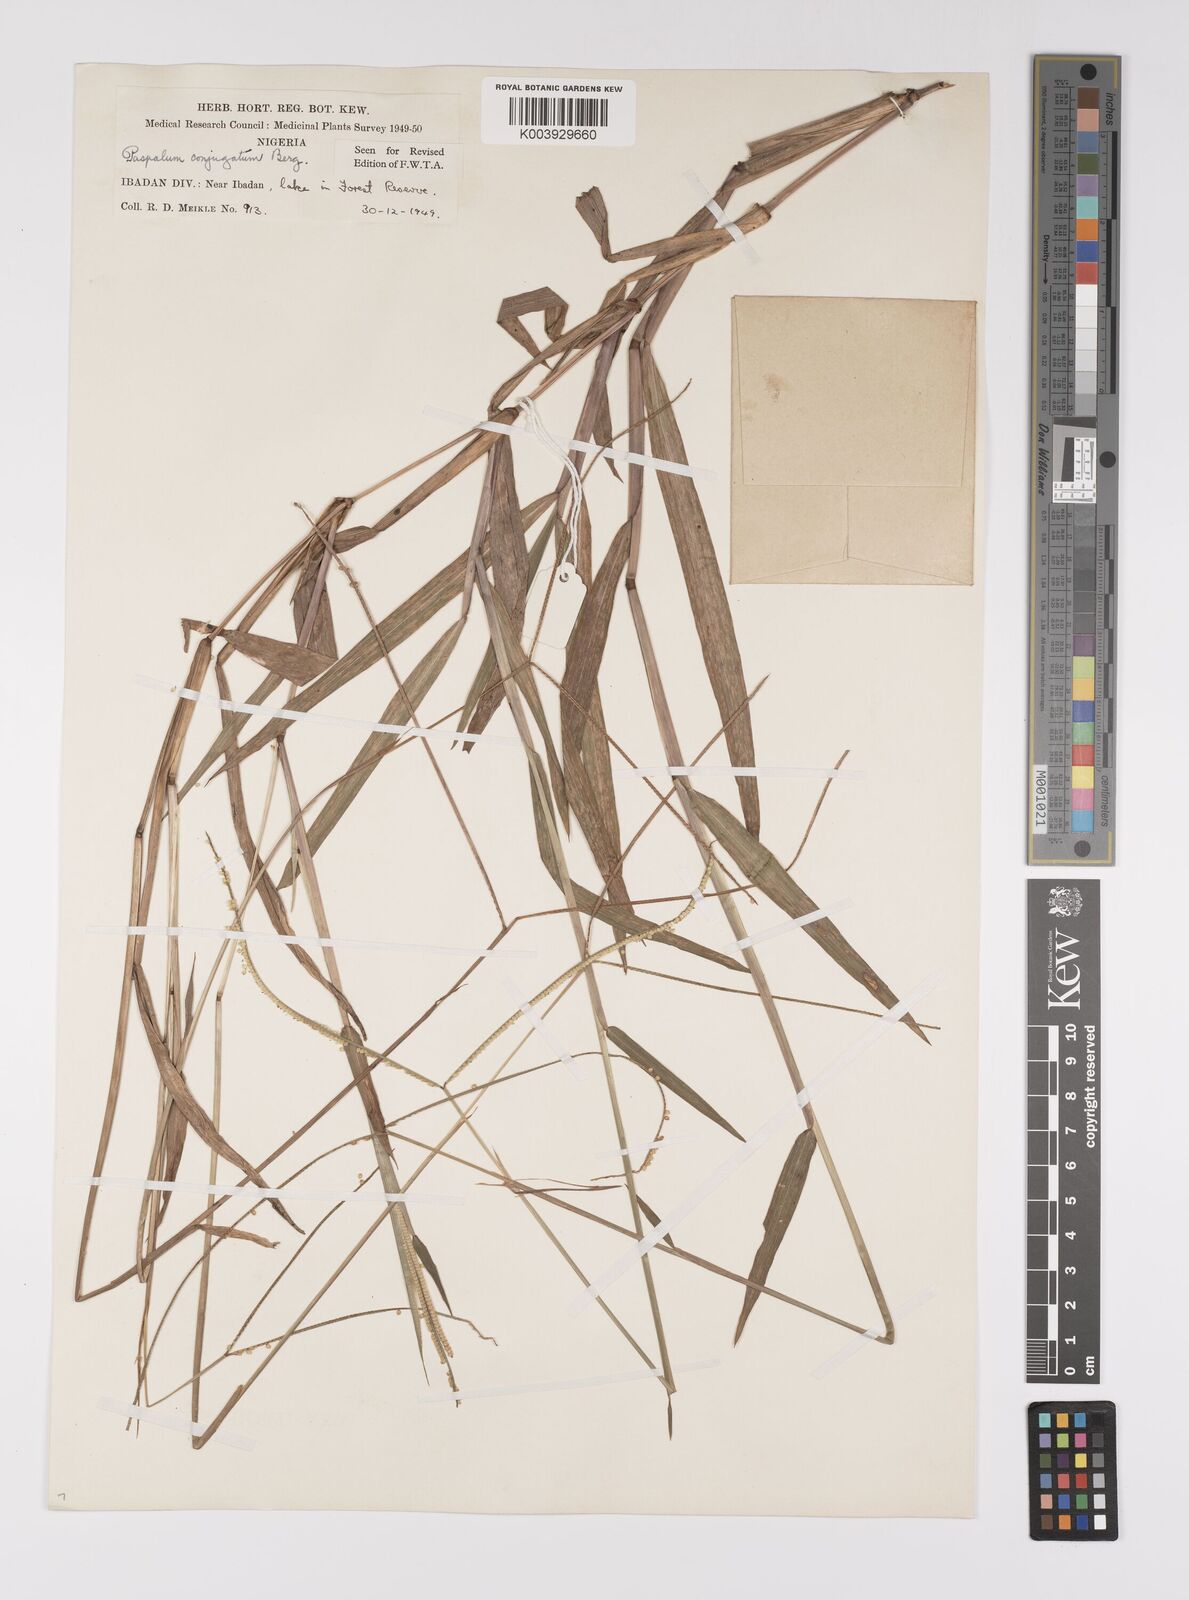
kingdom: Plantae
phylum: Tracheophyta
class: Liliopsida
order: Poales
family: Poaceae
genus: Paspalum
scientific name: Paspalum conjugatum
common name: Hilograss
